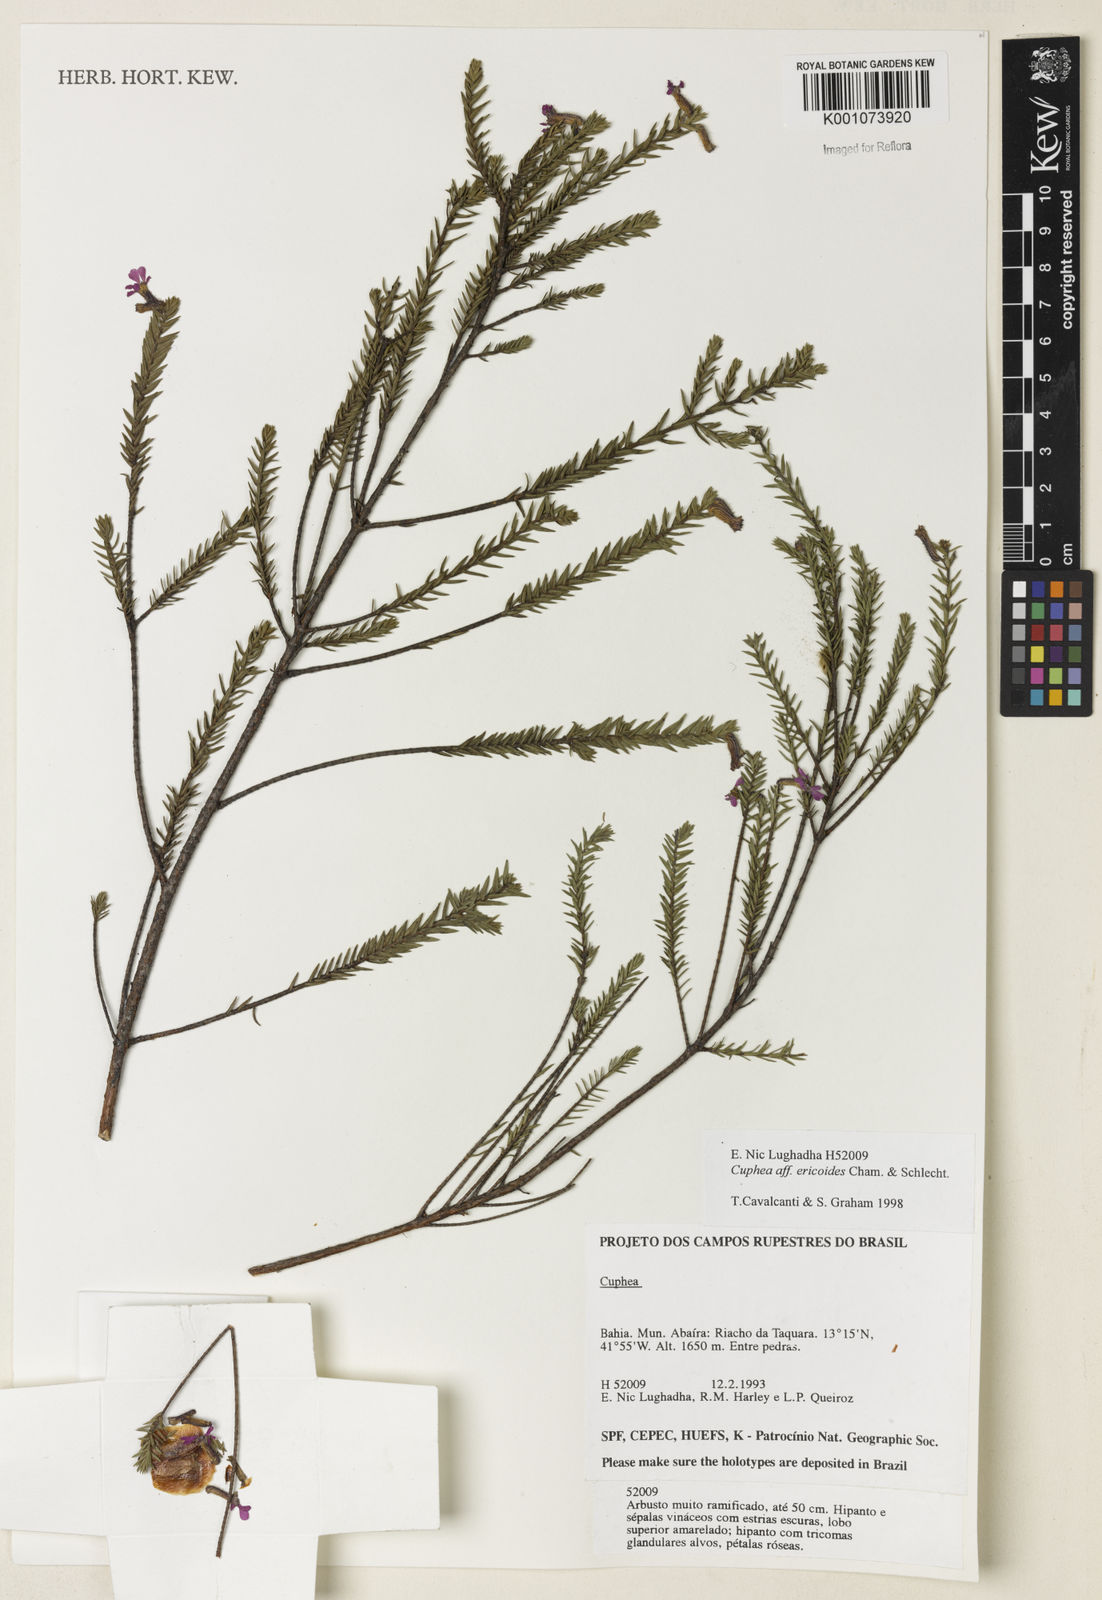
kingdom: Plantae
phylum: Tracheophyta
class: Magnoliopsida
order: Myrtales
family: Lythraceae
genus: Cuphea
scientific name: Cuphea ericoides
